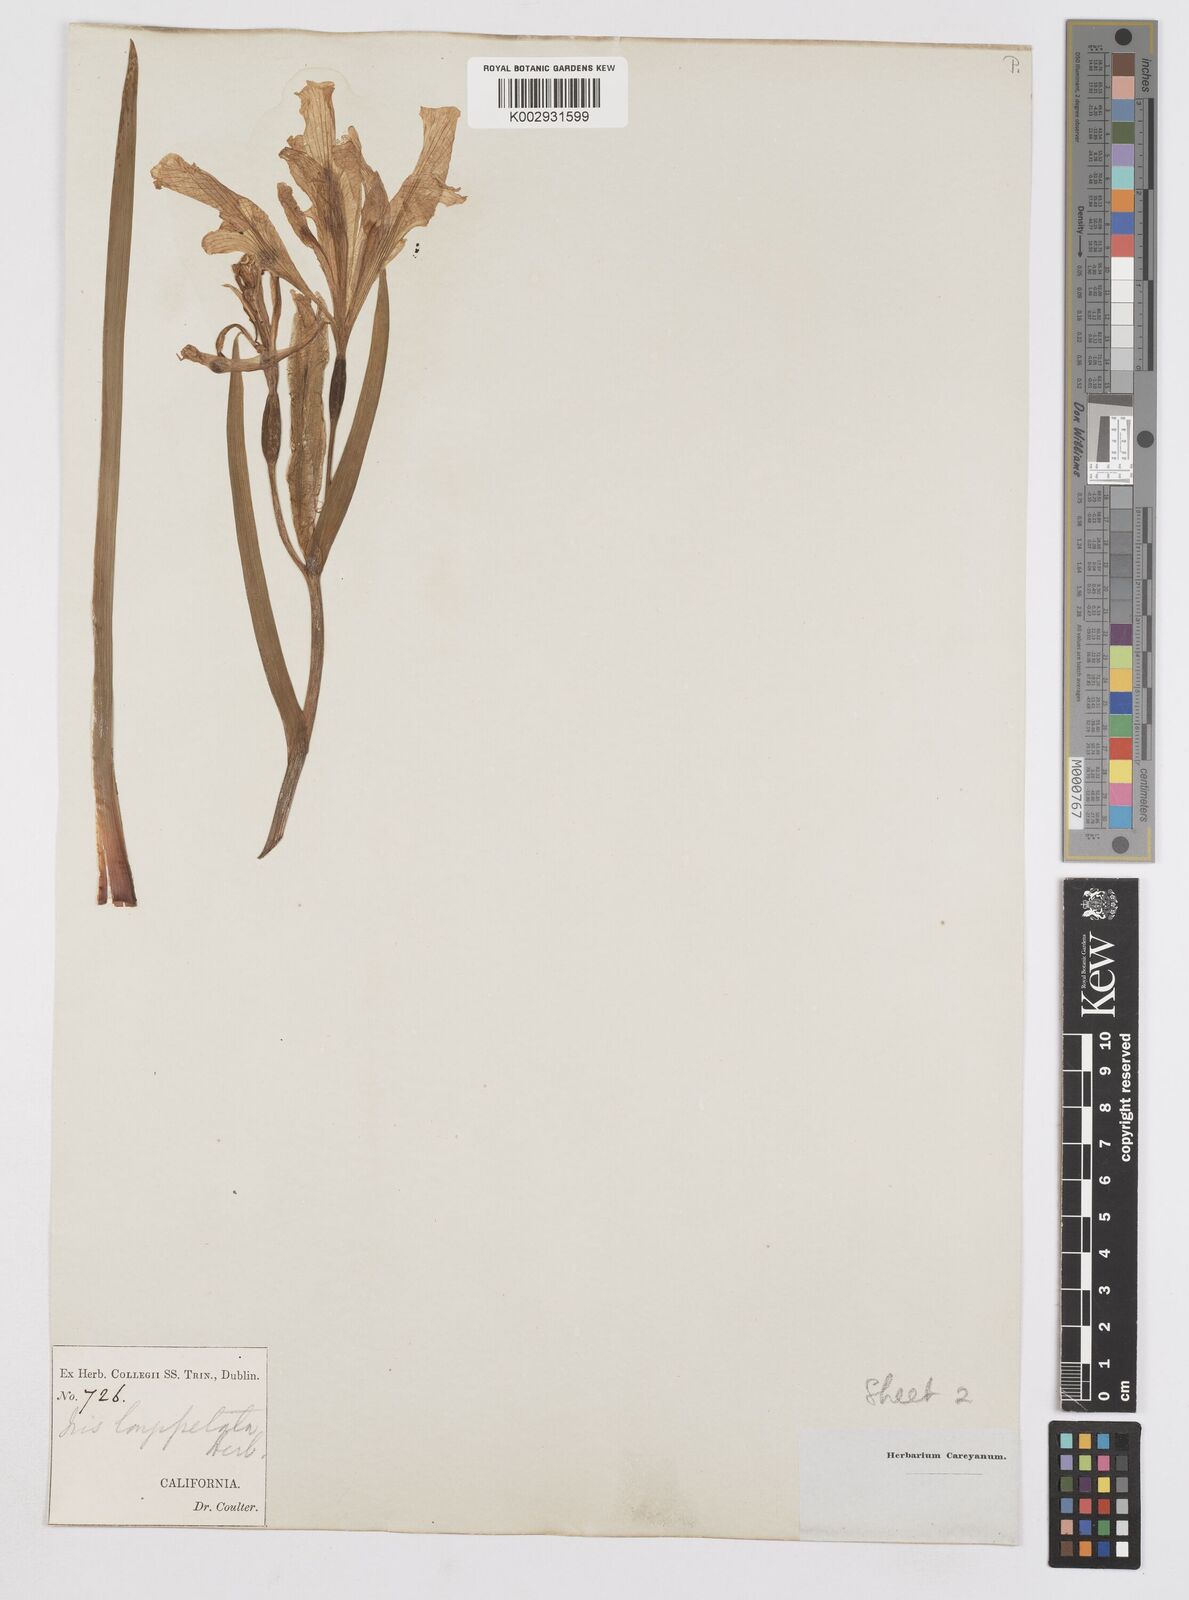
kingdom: Plantae
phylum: Tracheophyta
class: Liliopsida
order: Asparagales
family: Iridaceae
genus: Iris
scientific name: Iris longipetala
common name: Long-petal iris
